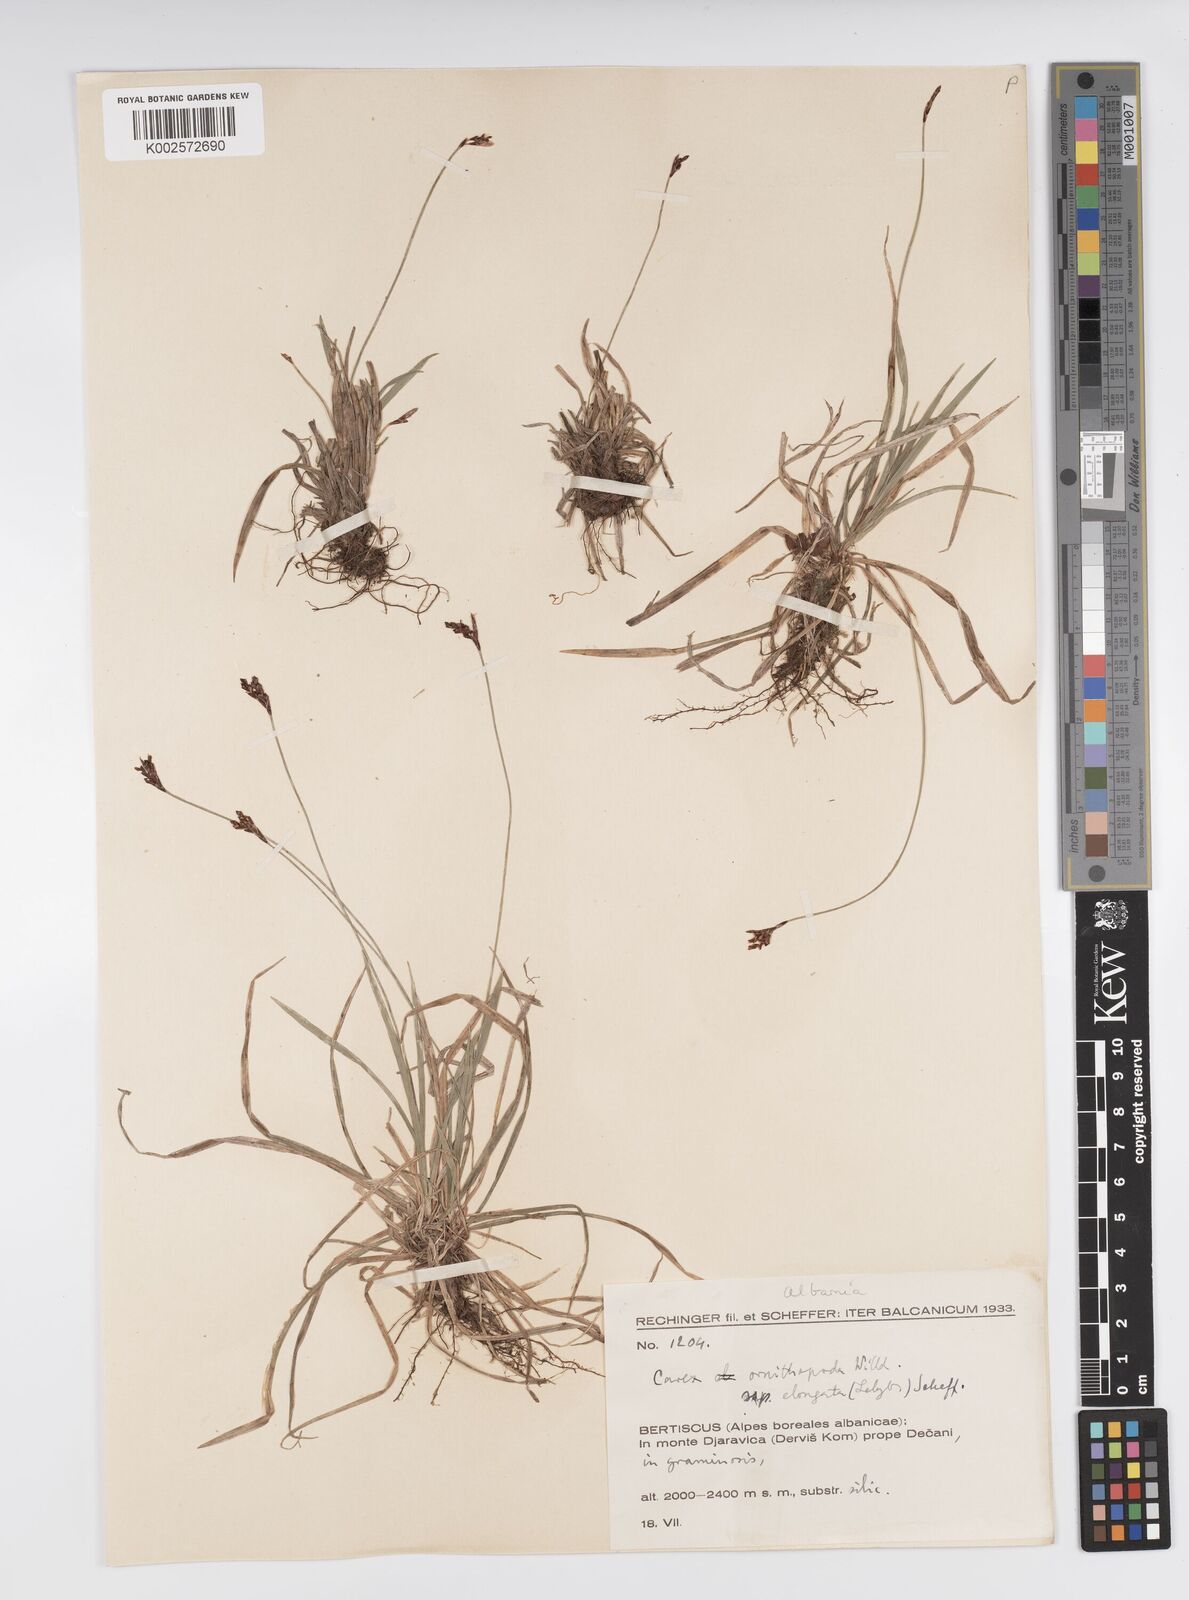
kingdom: Plantae
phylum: Tracheophyta
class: Liliopsida
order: Poales
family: Cyperaceae
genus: Carex
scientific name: Carex ornithopoda
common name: Bird's-foot sedge
